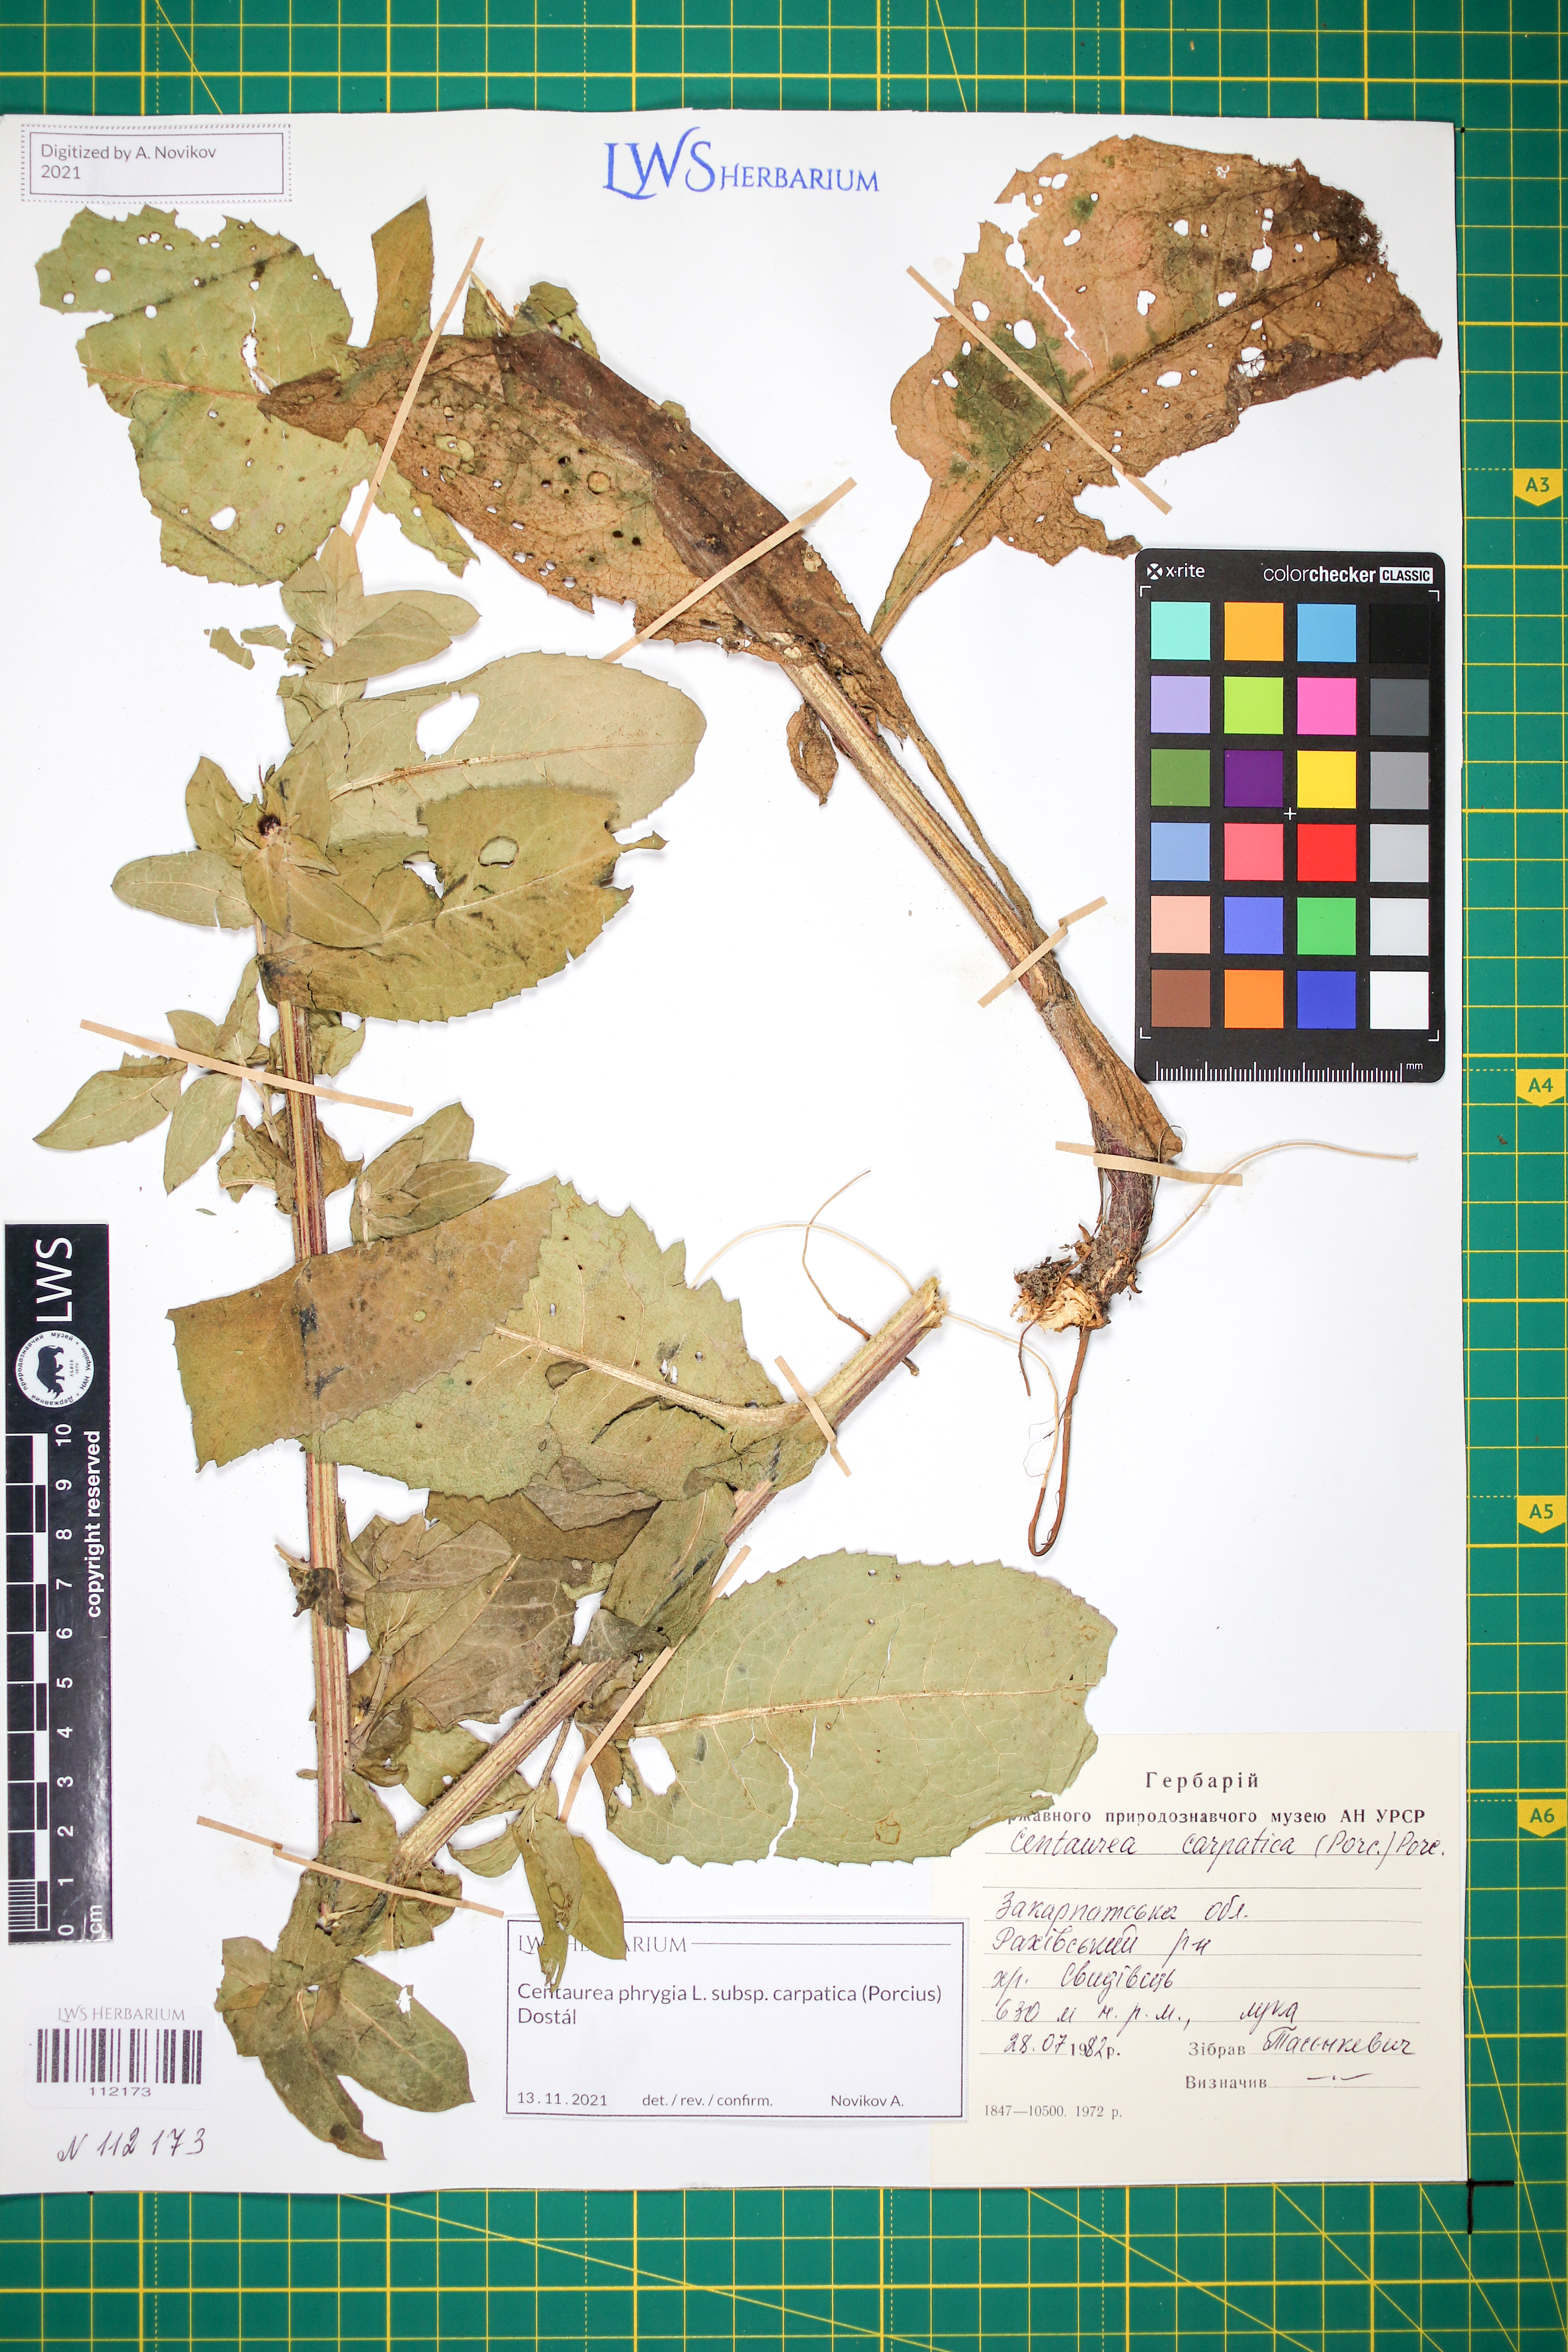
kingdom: Plantae
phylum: Tracheophyta
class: Magnoliopsida
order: Asterales
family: Asteraceae
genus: Centaurea
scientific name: Centaurea phrygia
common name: Wig knapweed
